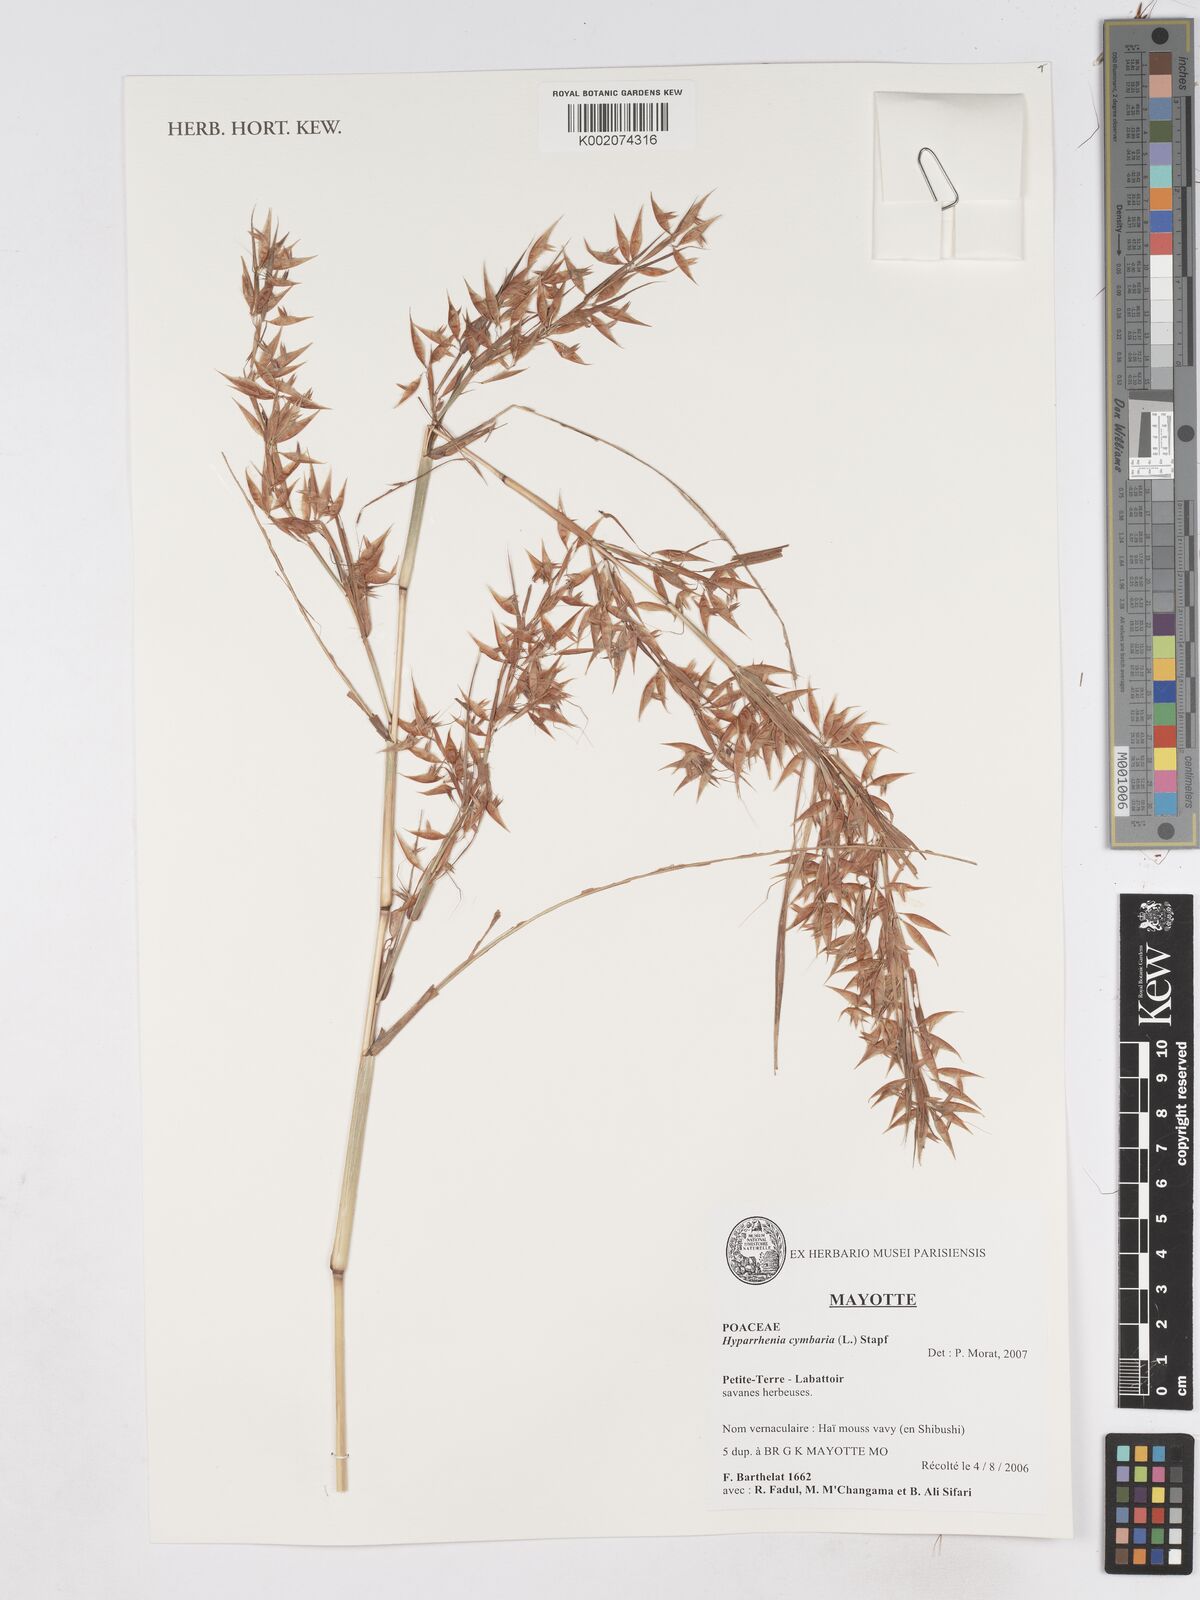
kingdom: Plantae
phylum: Tracheophyta
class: Liliopsida
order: Poales
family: Poaceae
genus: Hyparrhenia
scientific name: Hyparrhenia cymbaria
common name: Boat thatching grass
